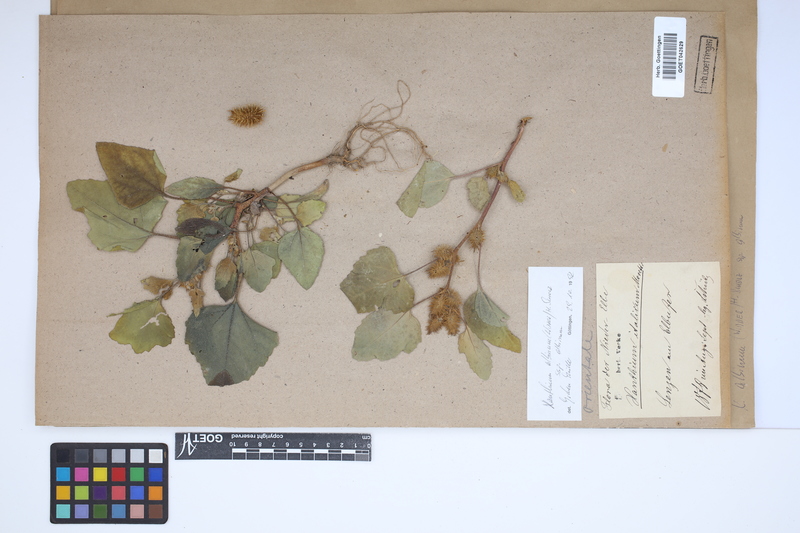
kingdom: Plantae
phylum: Tracheophyta
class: Magnoliopsida
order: Asterales
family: Asteraceae
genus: Xanthium
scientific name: Xanthium orientale
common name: Californian burr
